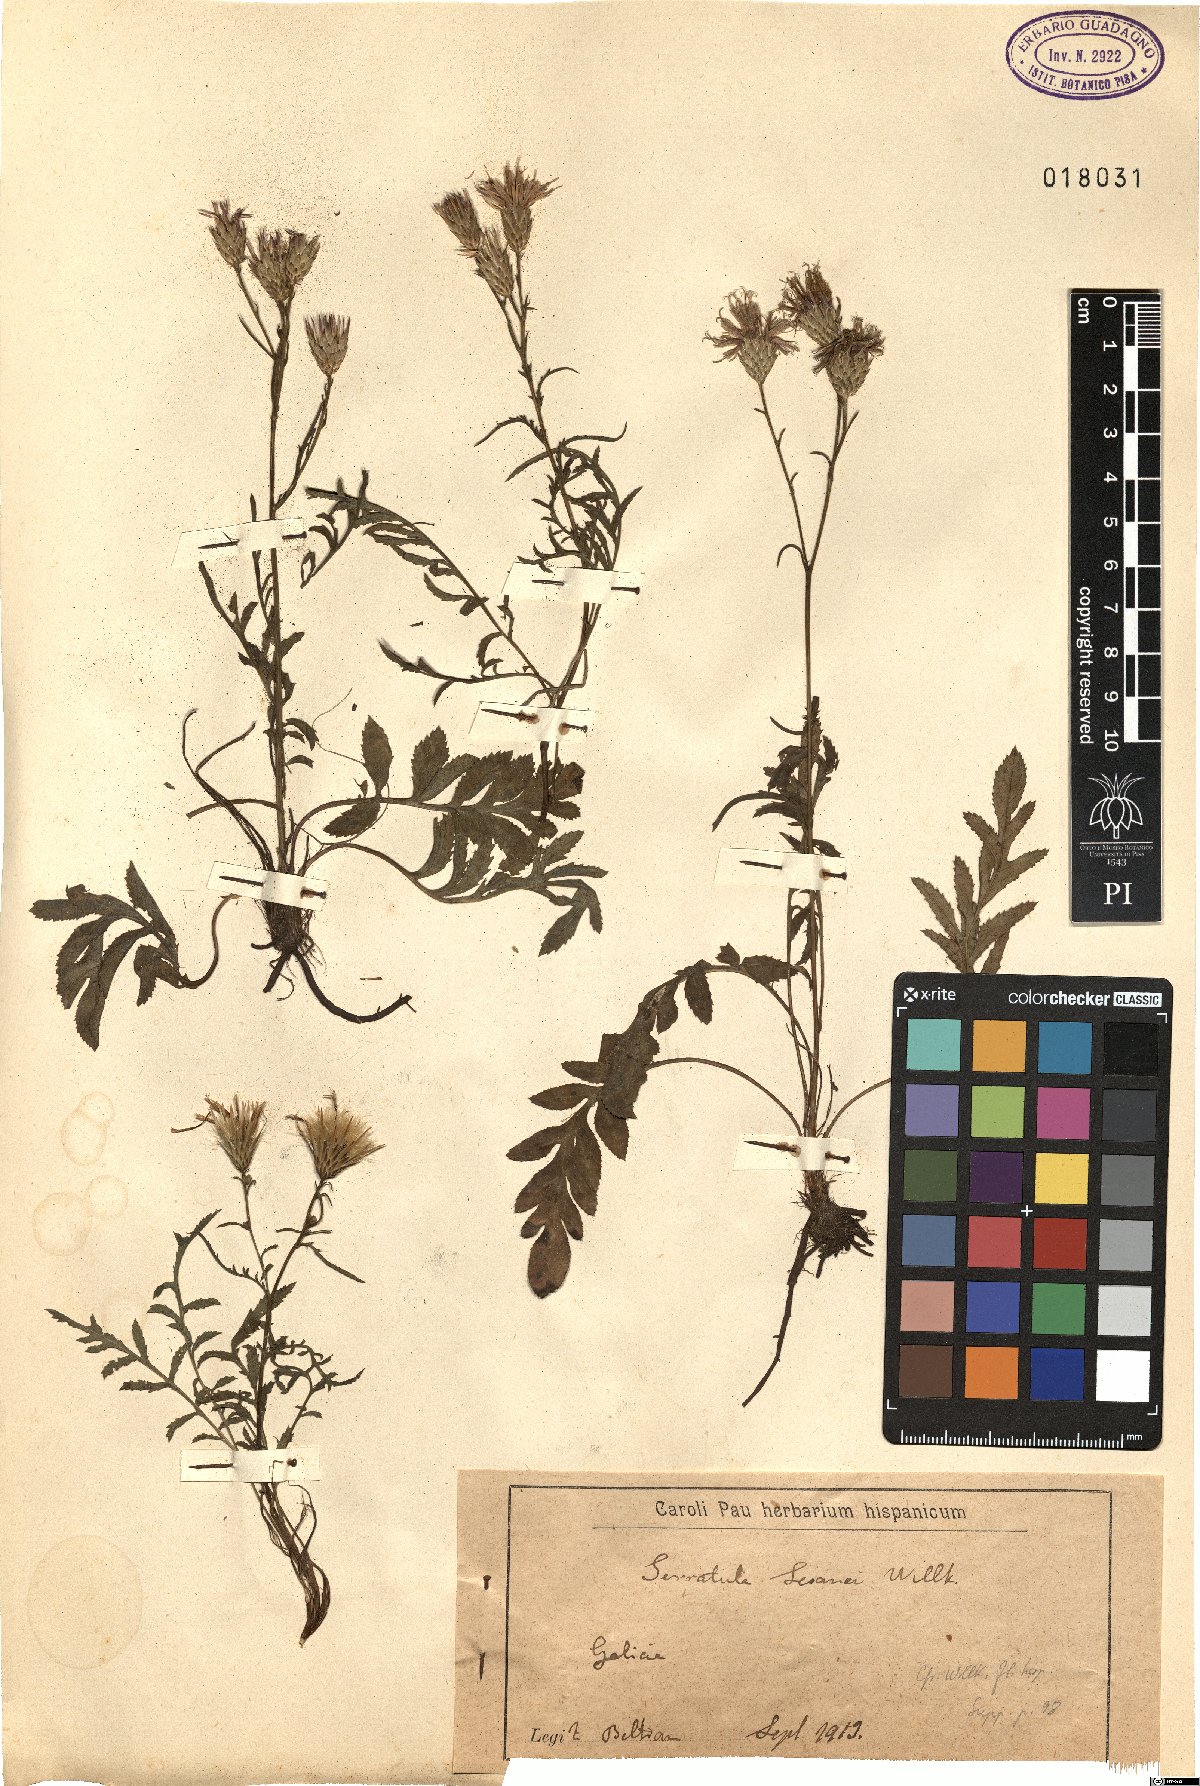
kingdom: Plantae
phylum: Tracheophyta
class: Magnoliopsida
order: Asterales
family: Asteraceae
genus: Serratula
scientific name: Serratula tinctoria
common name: Saw-wort
